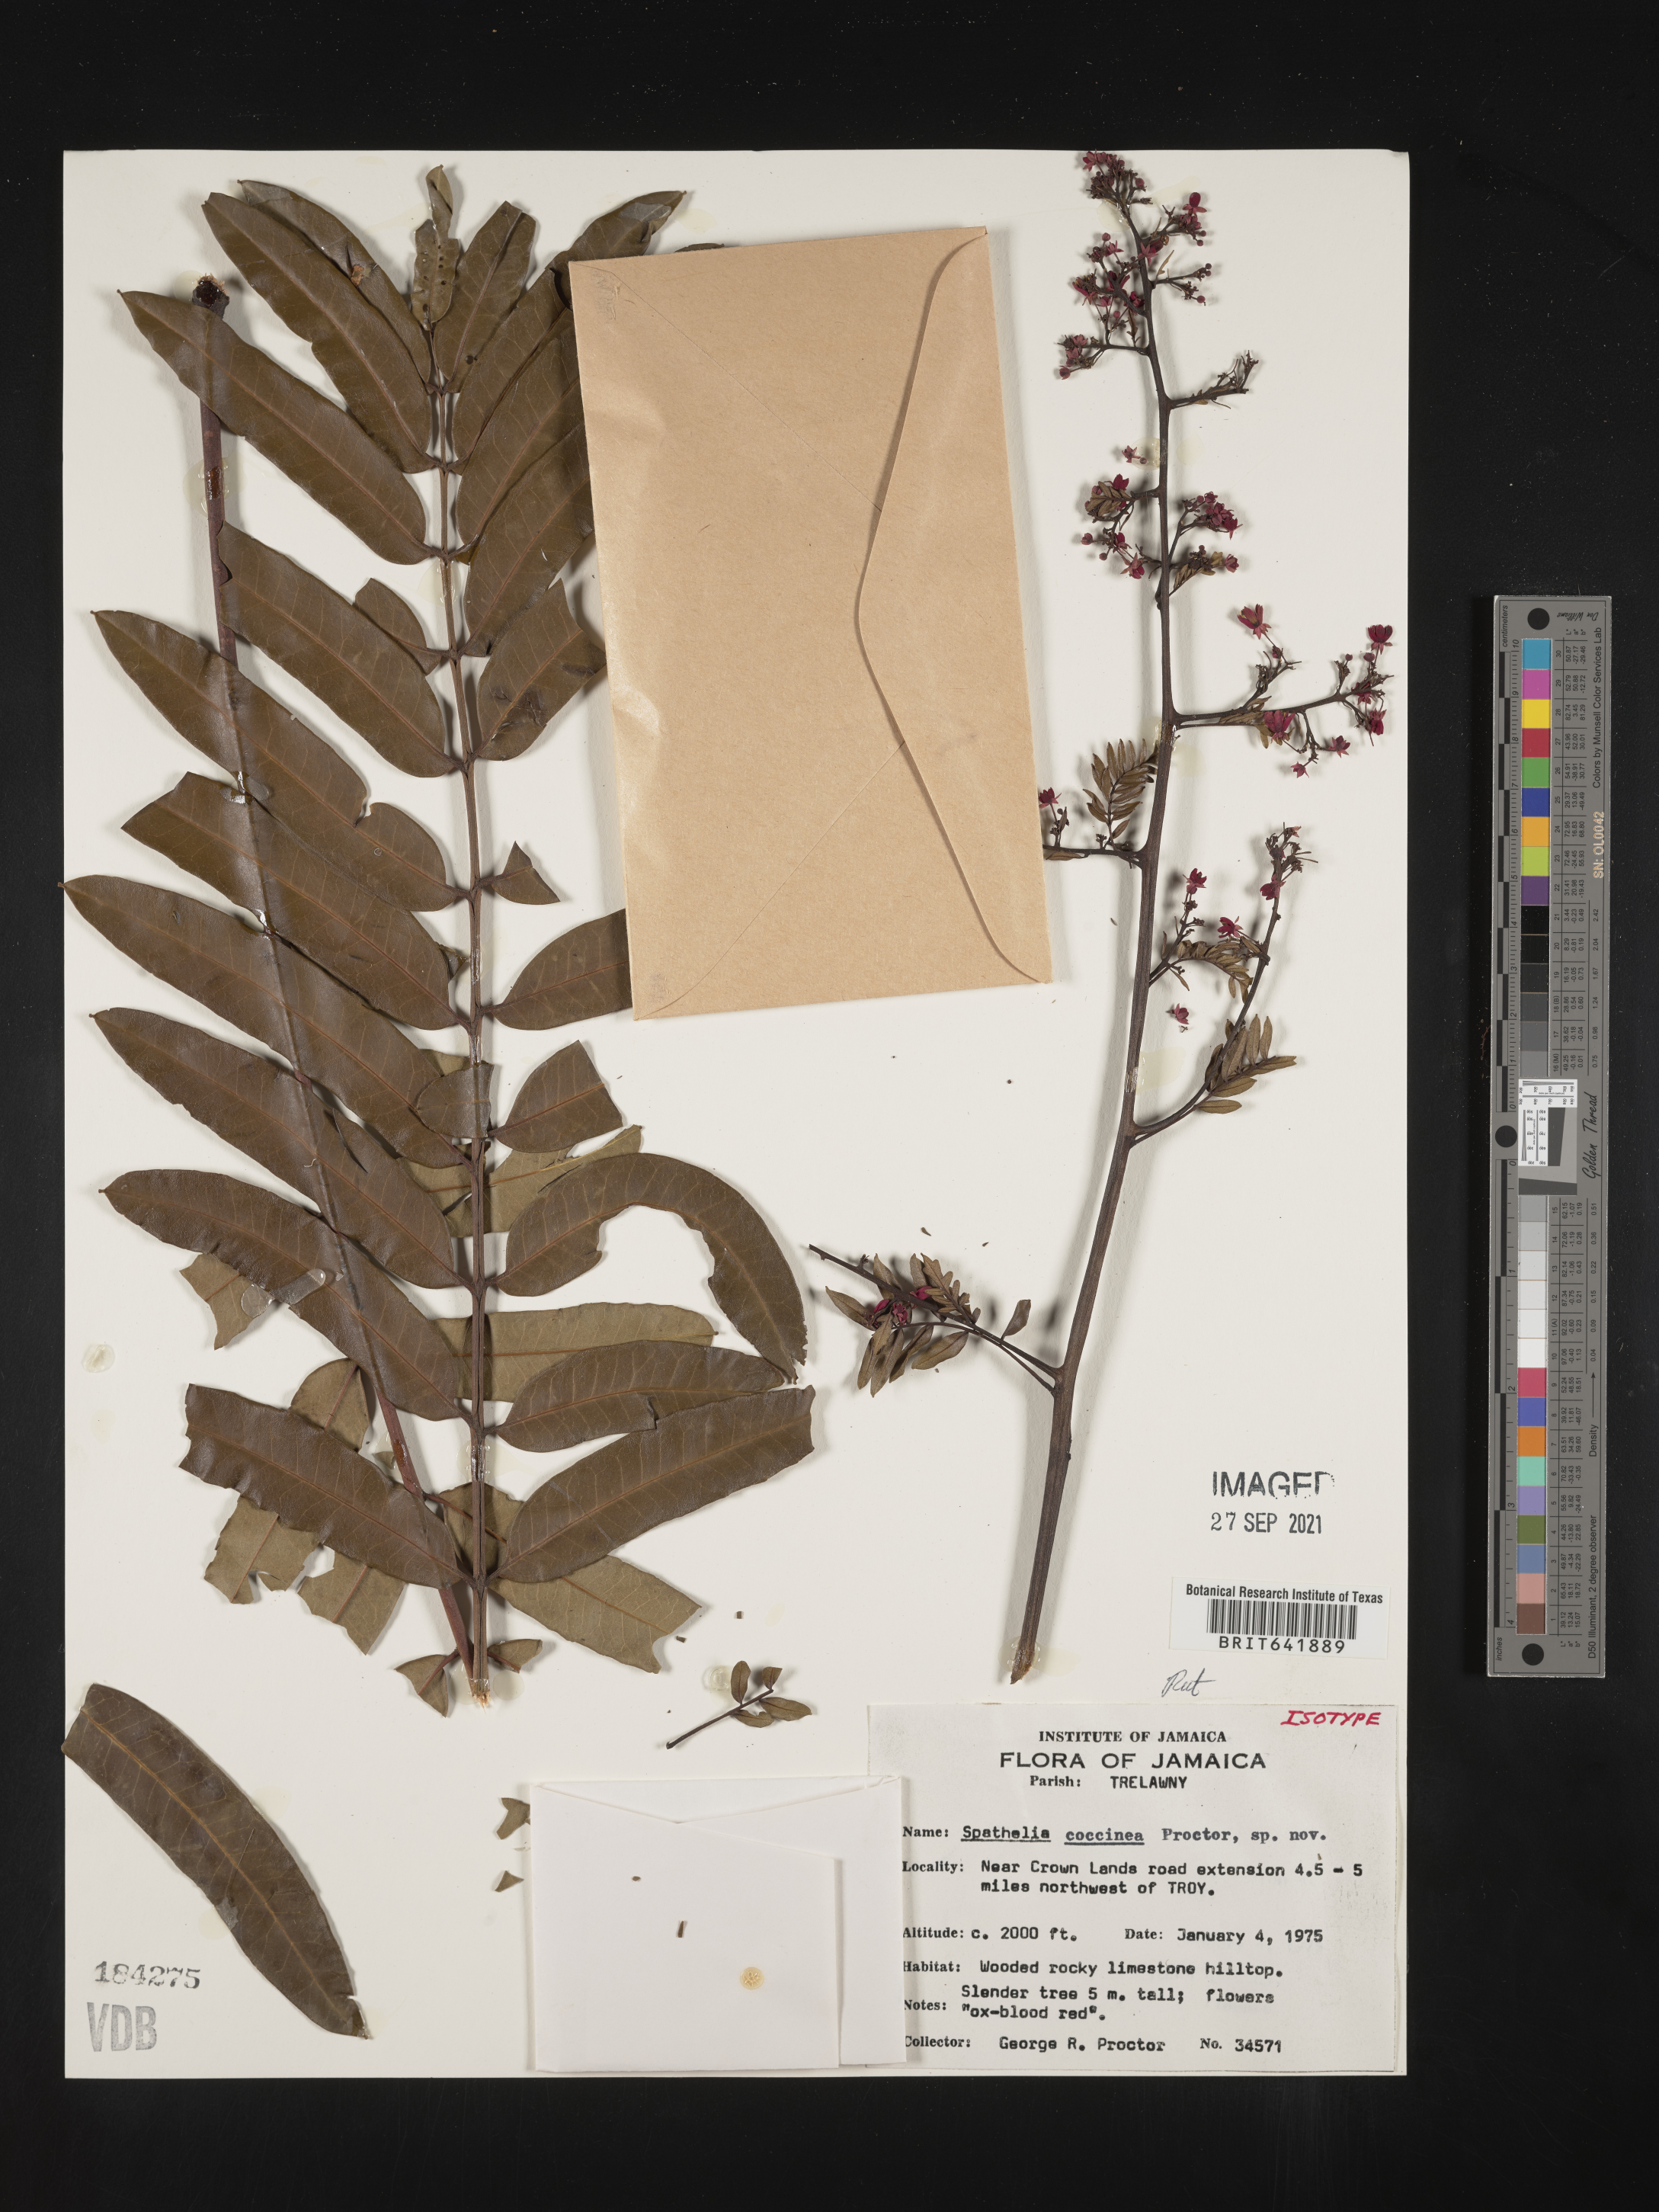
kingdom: Plantae
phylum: Tracheophyta
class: Magnoliopsida
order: Sapindales
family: Rutaceae
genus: Spathelia
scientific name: Spathelia coccinea
